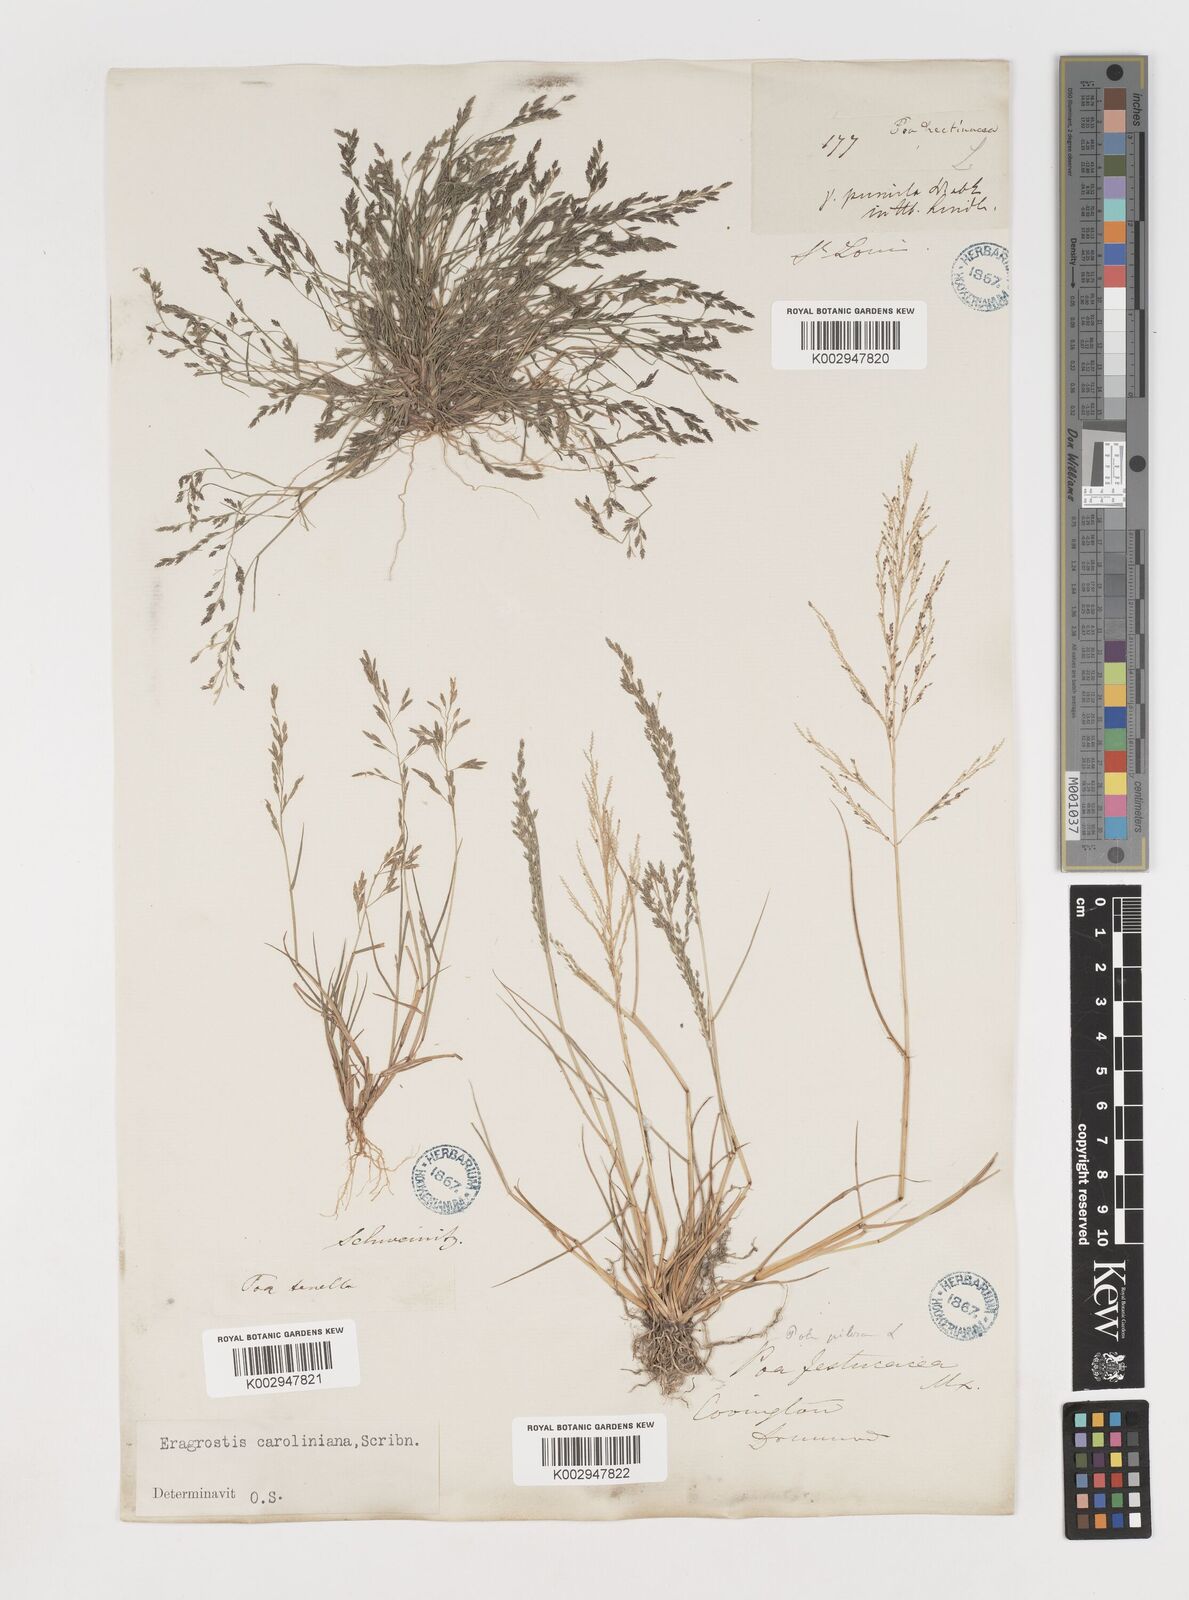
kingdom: Plantae
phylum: Tracheophyta
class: Liliopsida
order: Poales
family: Poaceae
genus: Eragrostis
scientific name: Eragrostis pectinacea
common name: Tufted lovegrass
